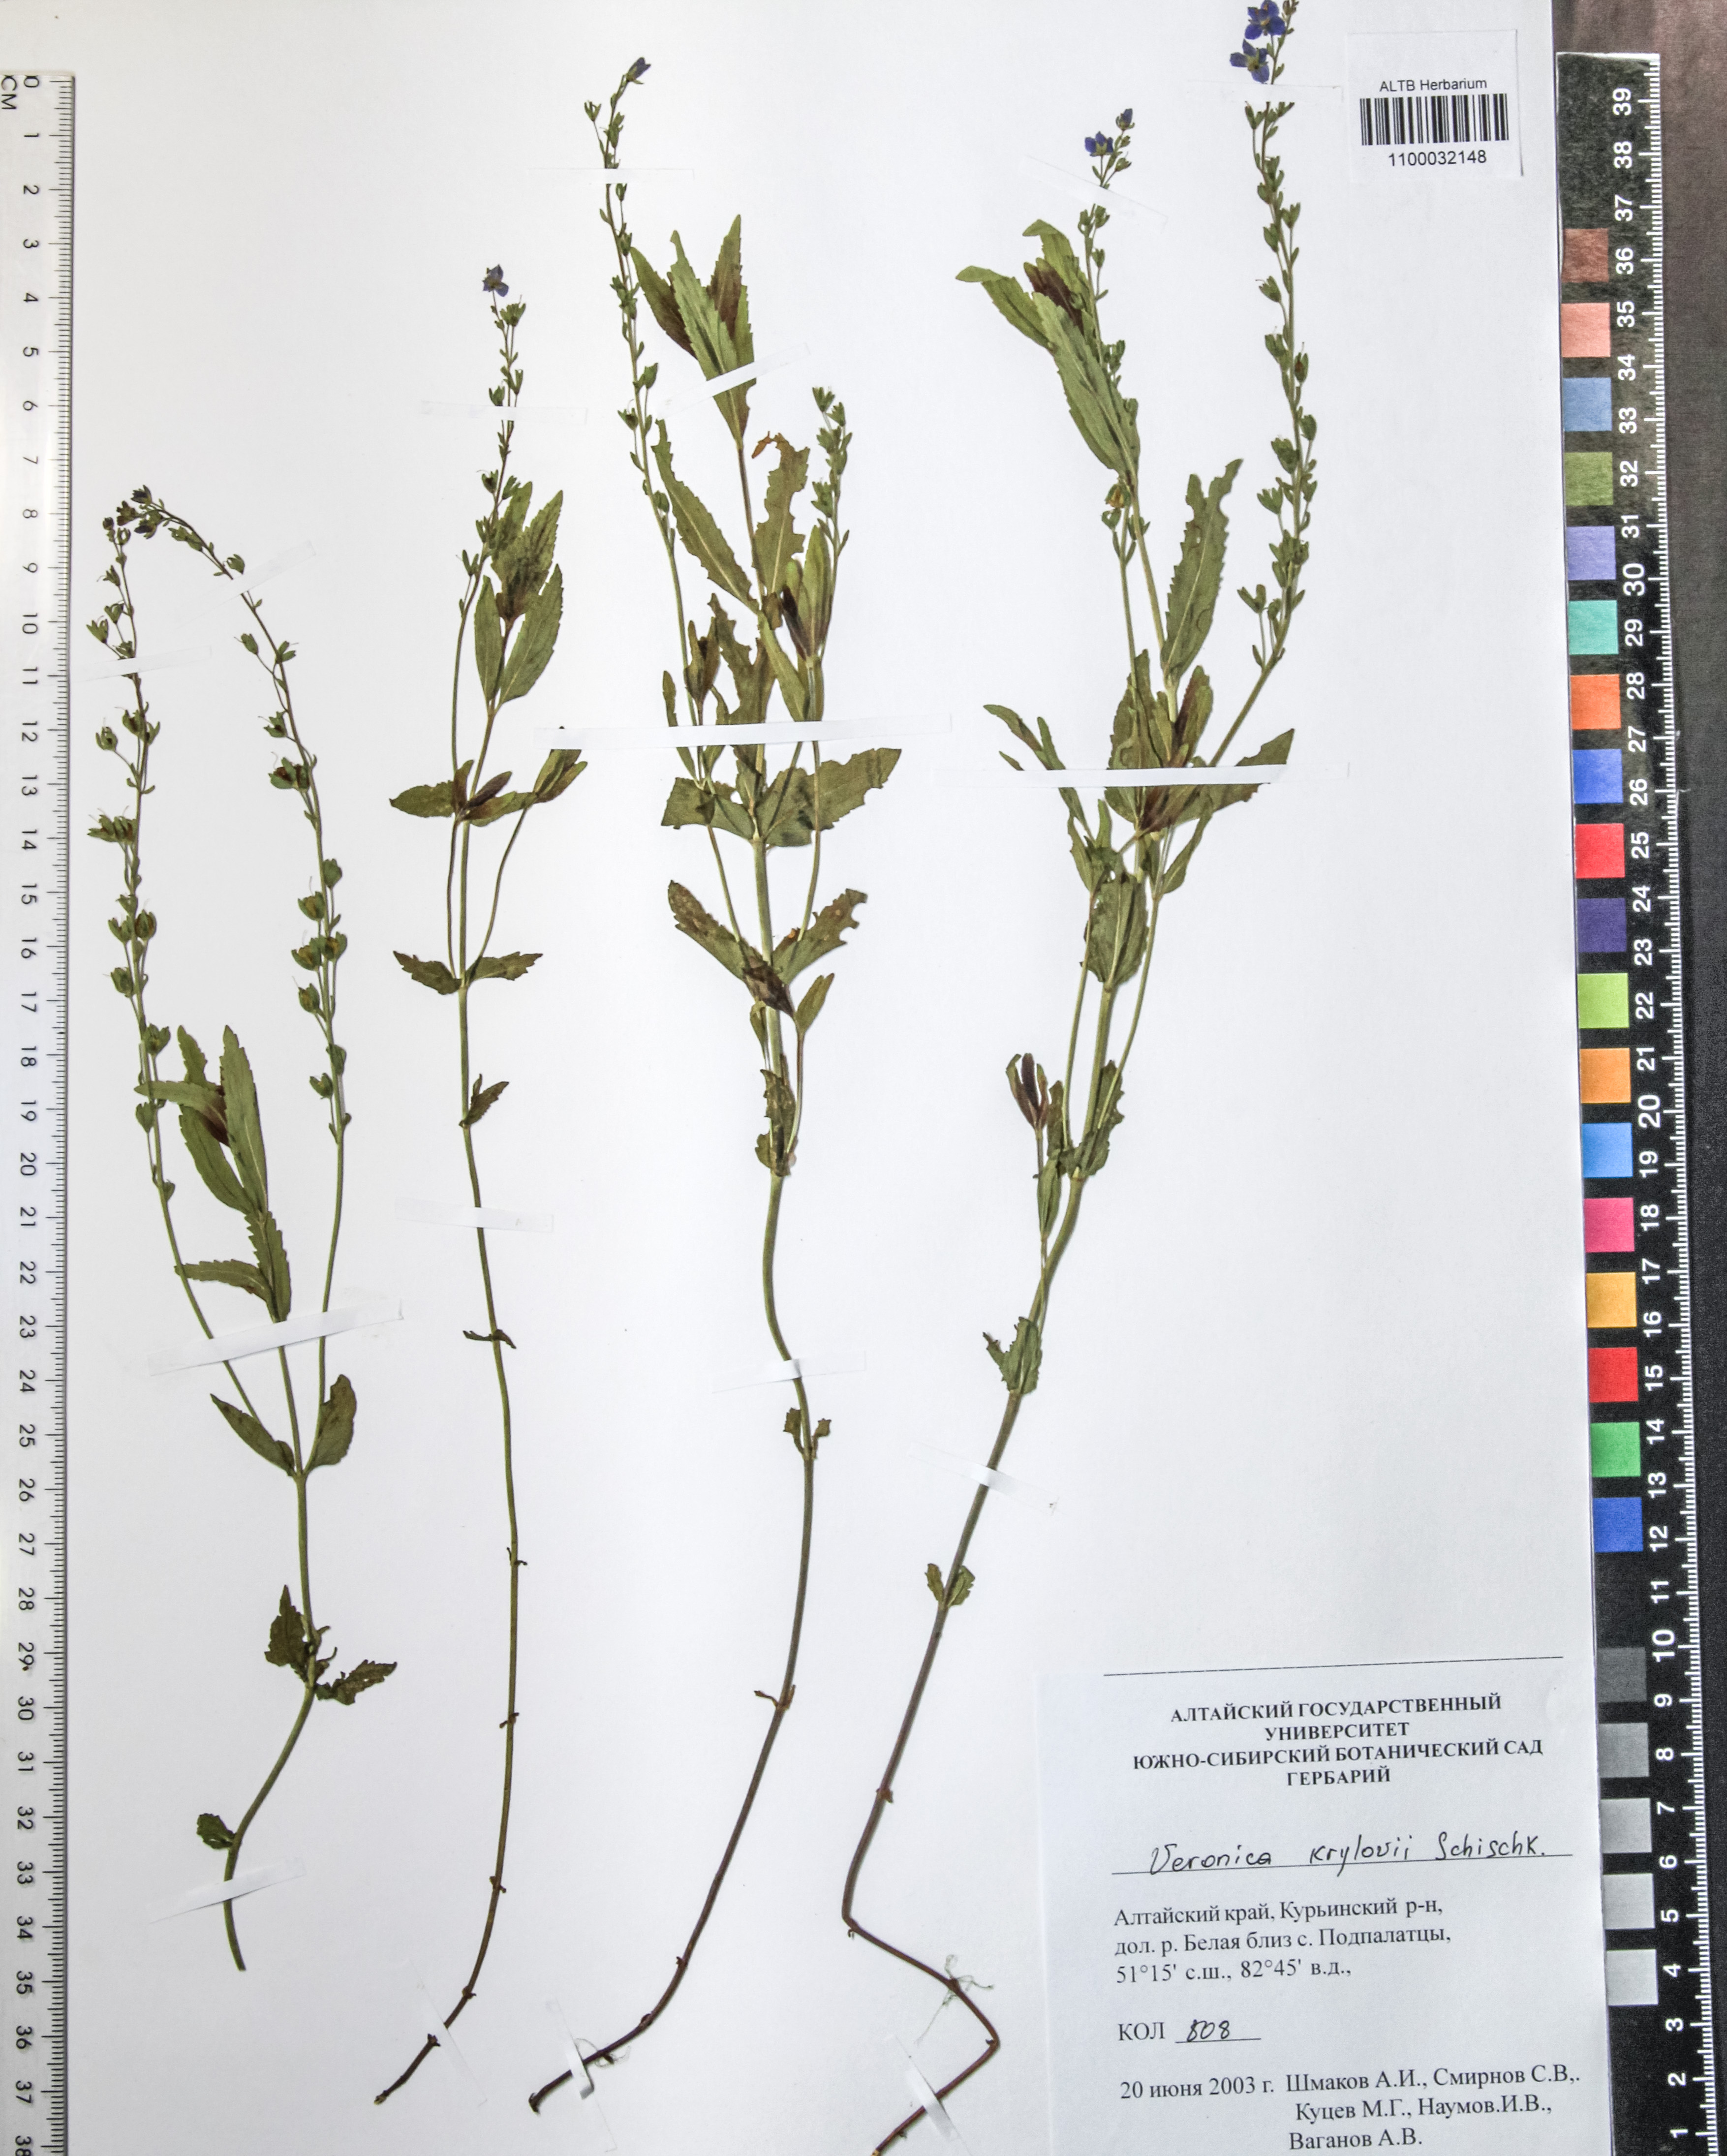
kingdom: Plantae
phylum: Tracheophyta
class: Magnoliopsida
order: Lamiales
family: Plantaginaceae
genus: Veronica
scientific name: Veronica krylovii
